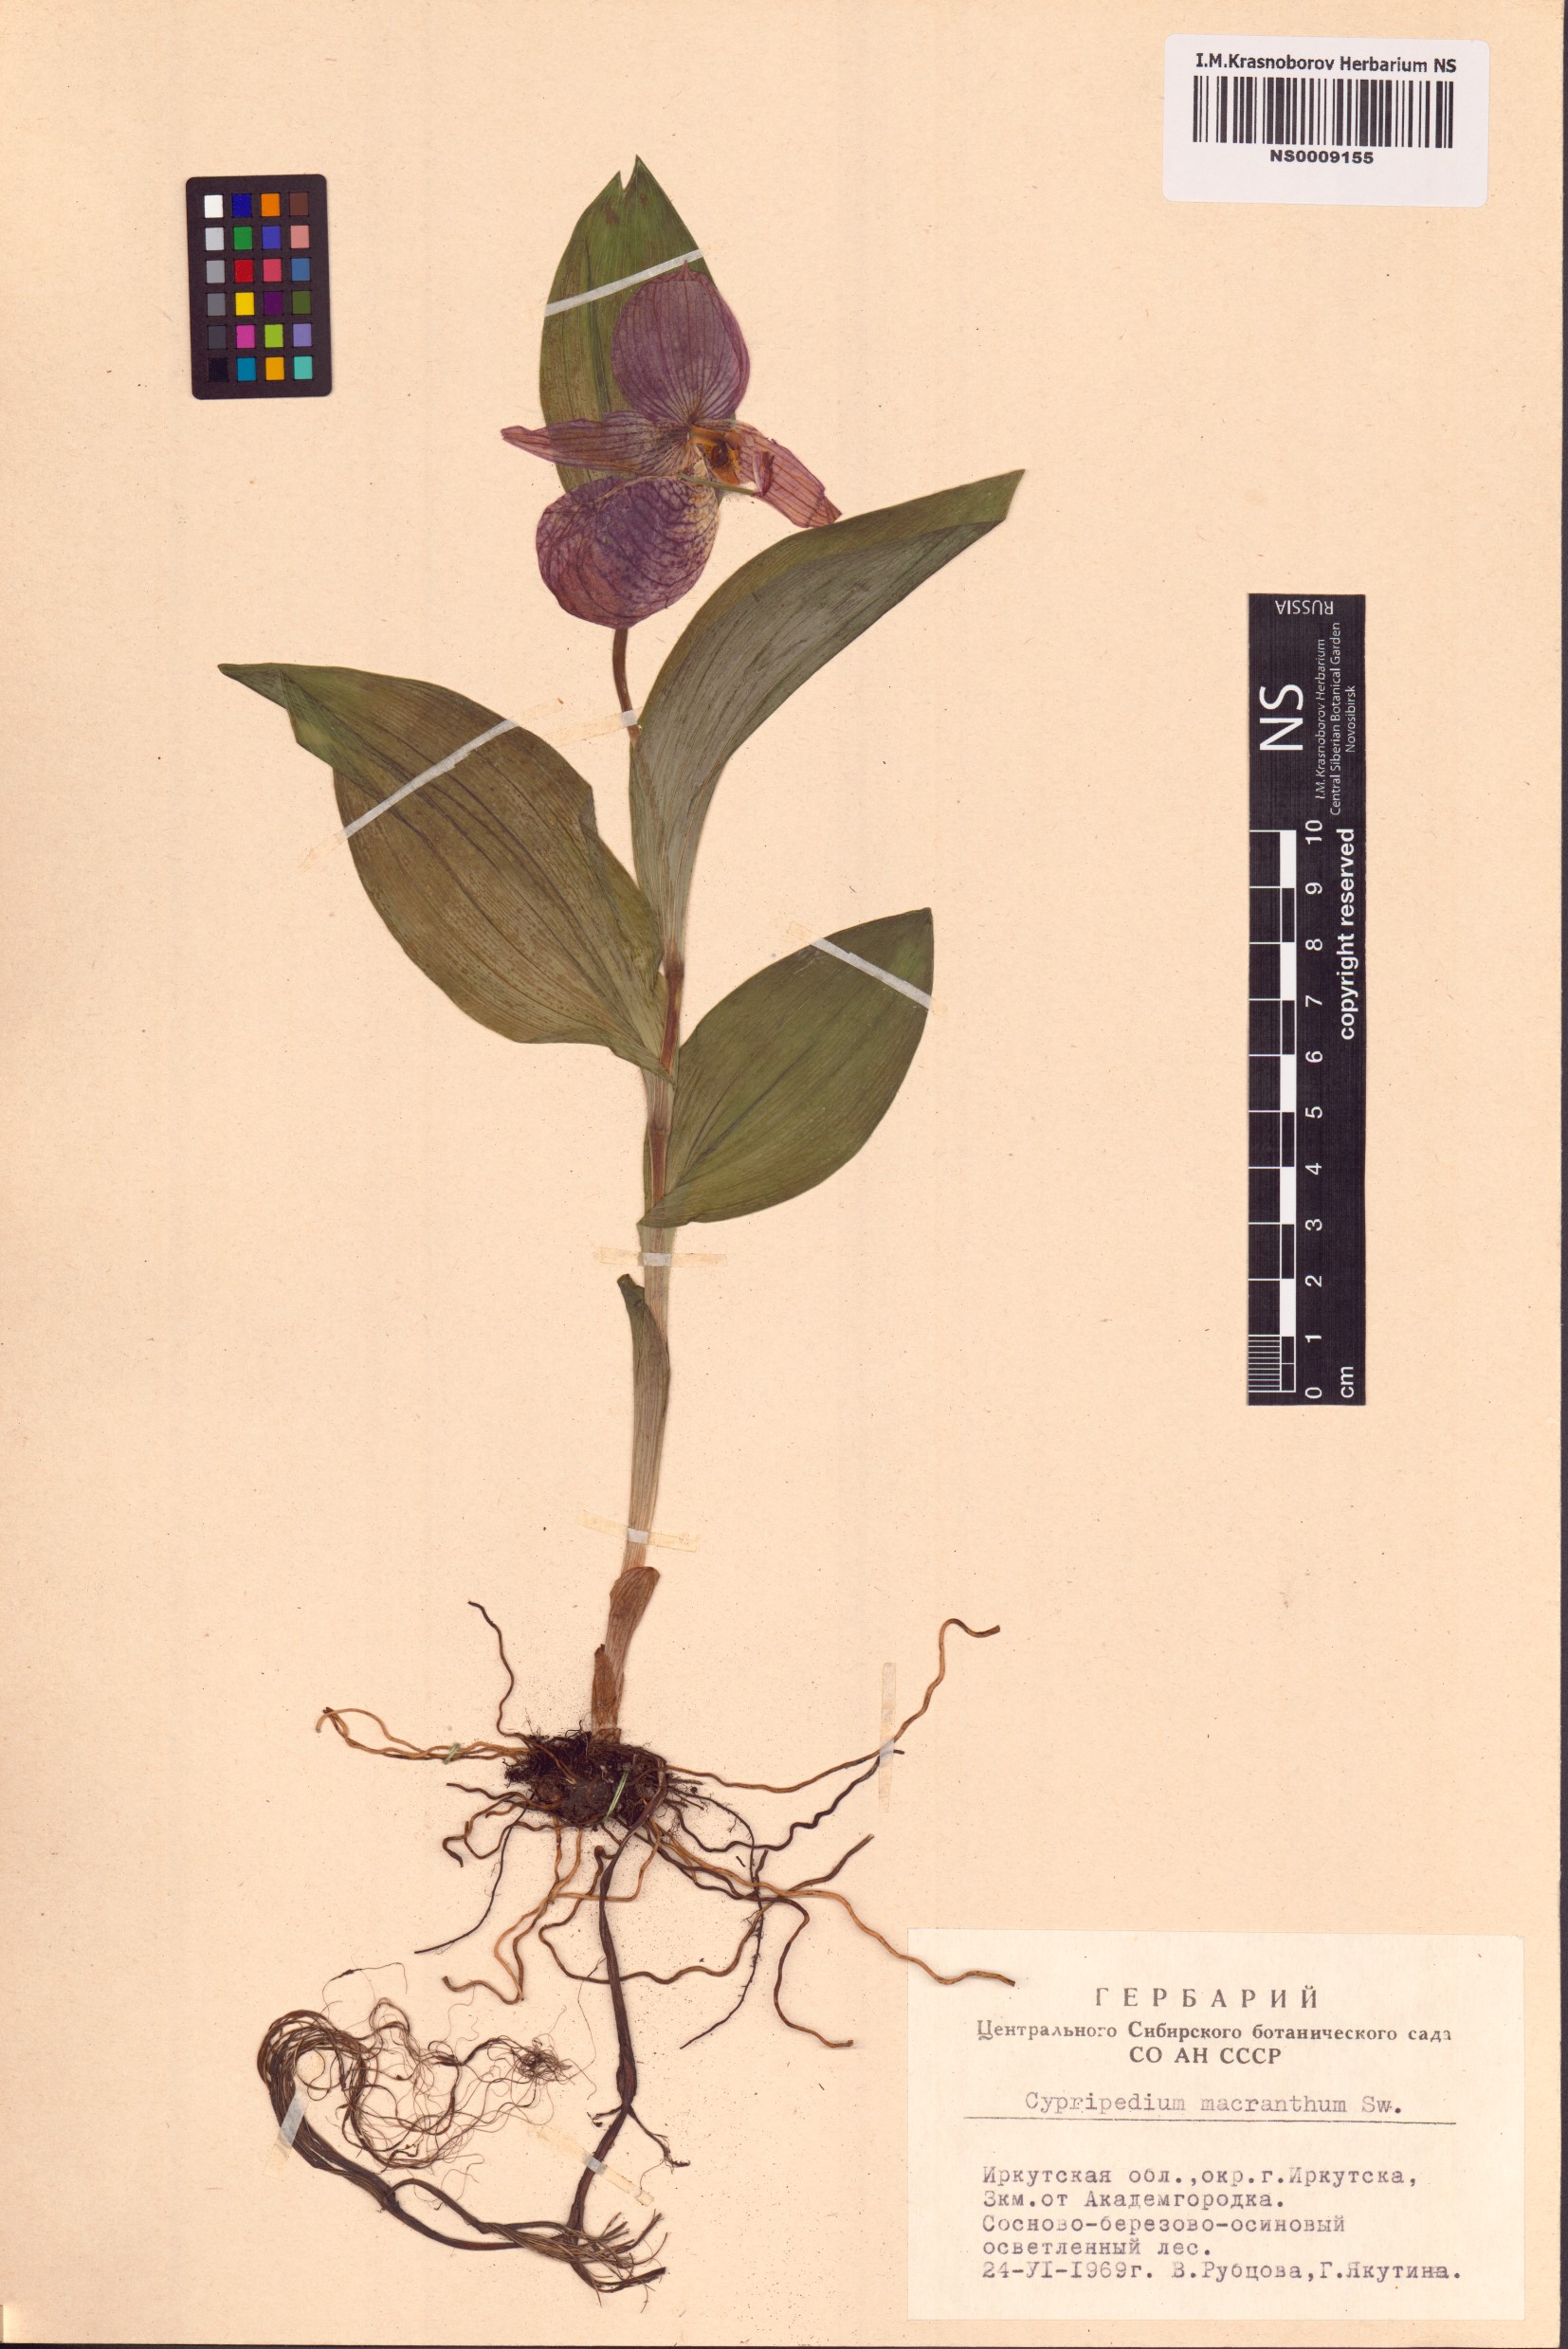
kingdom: Plantae
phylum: Tracheophyta
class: Liliopsida
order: Asparagales
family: Orchidaceae
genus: Cypripedium
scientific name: Cypripedium macranthos
